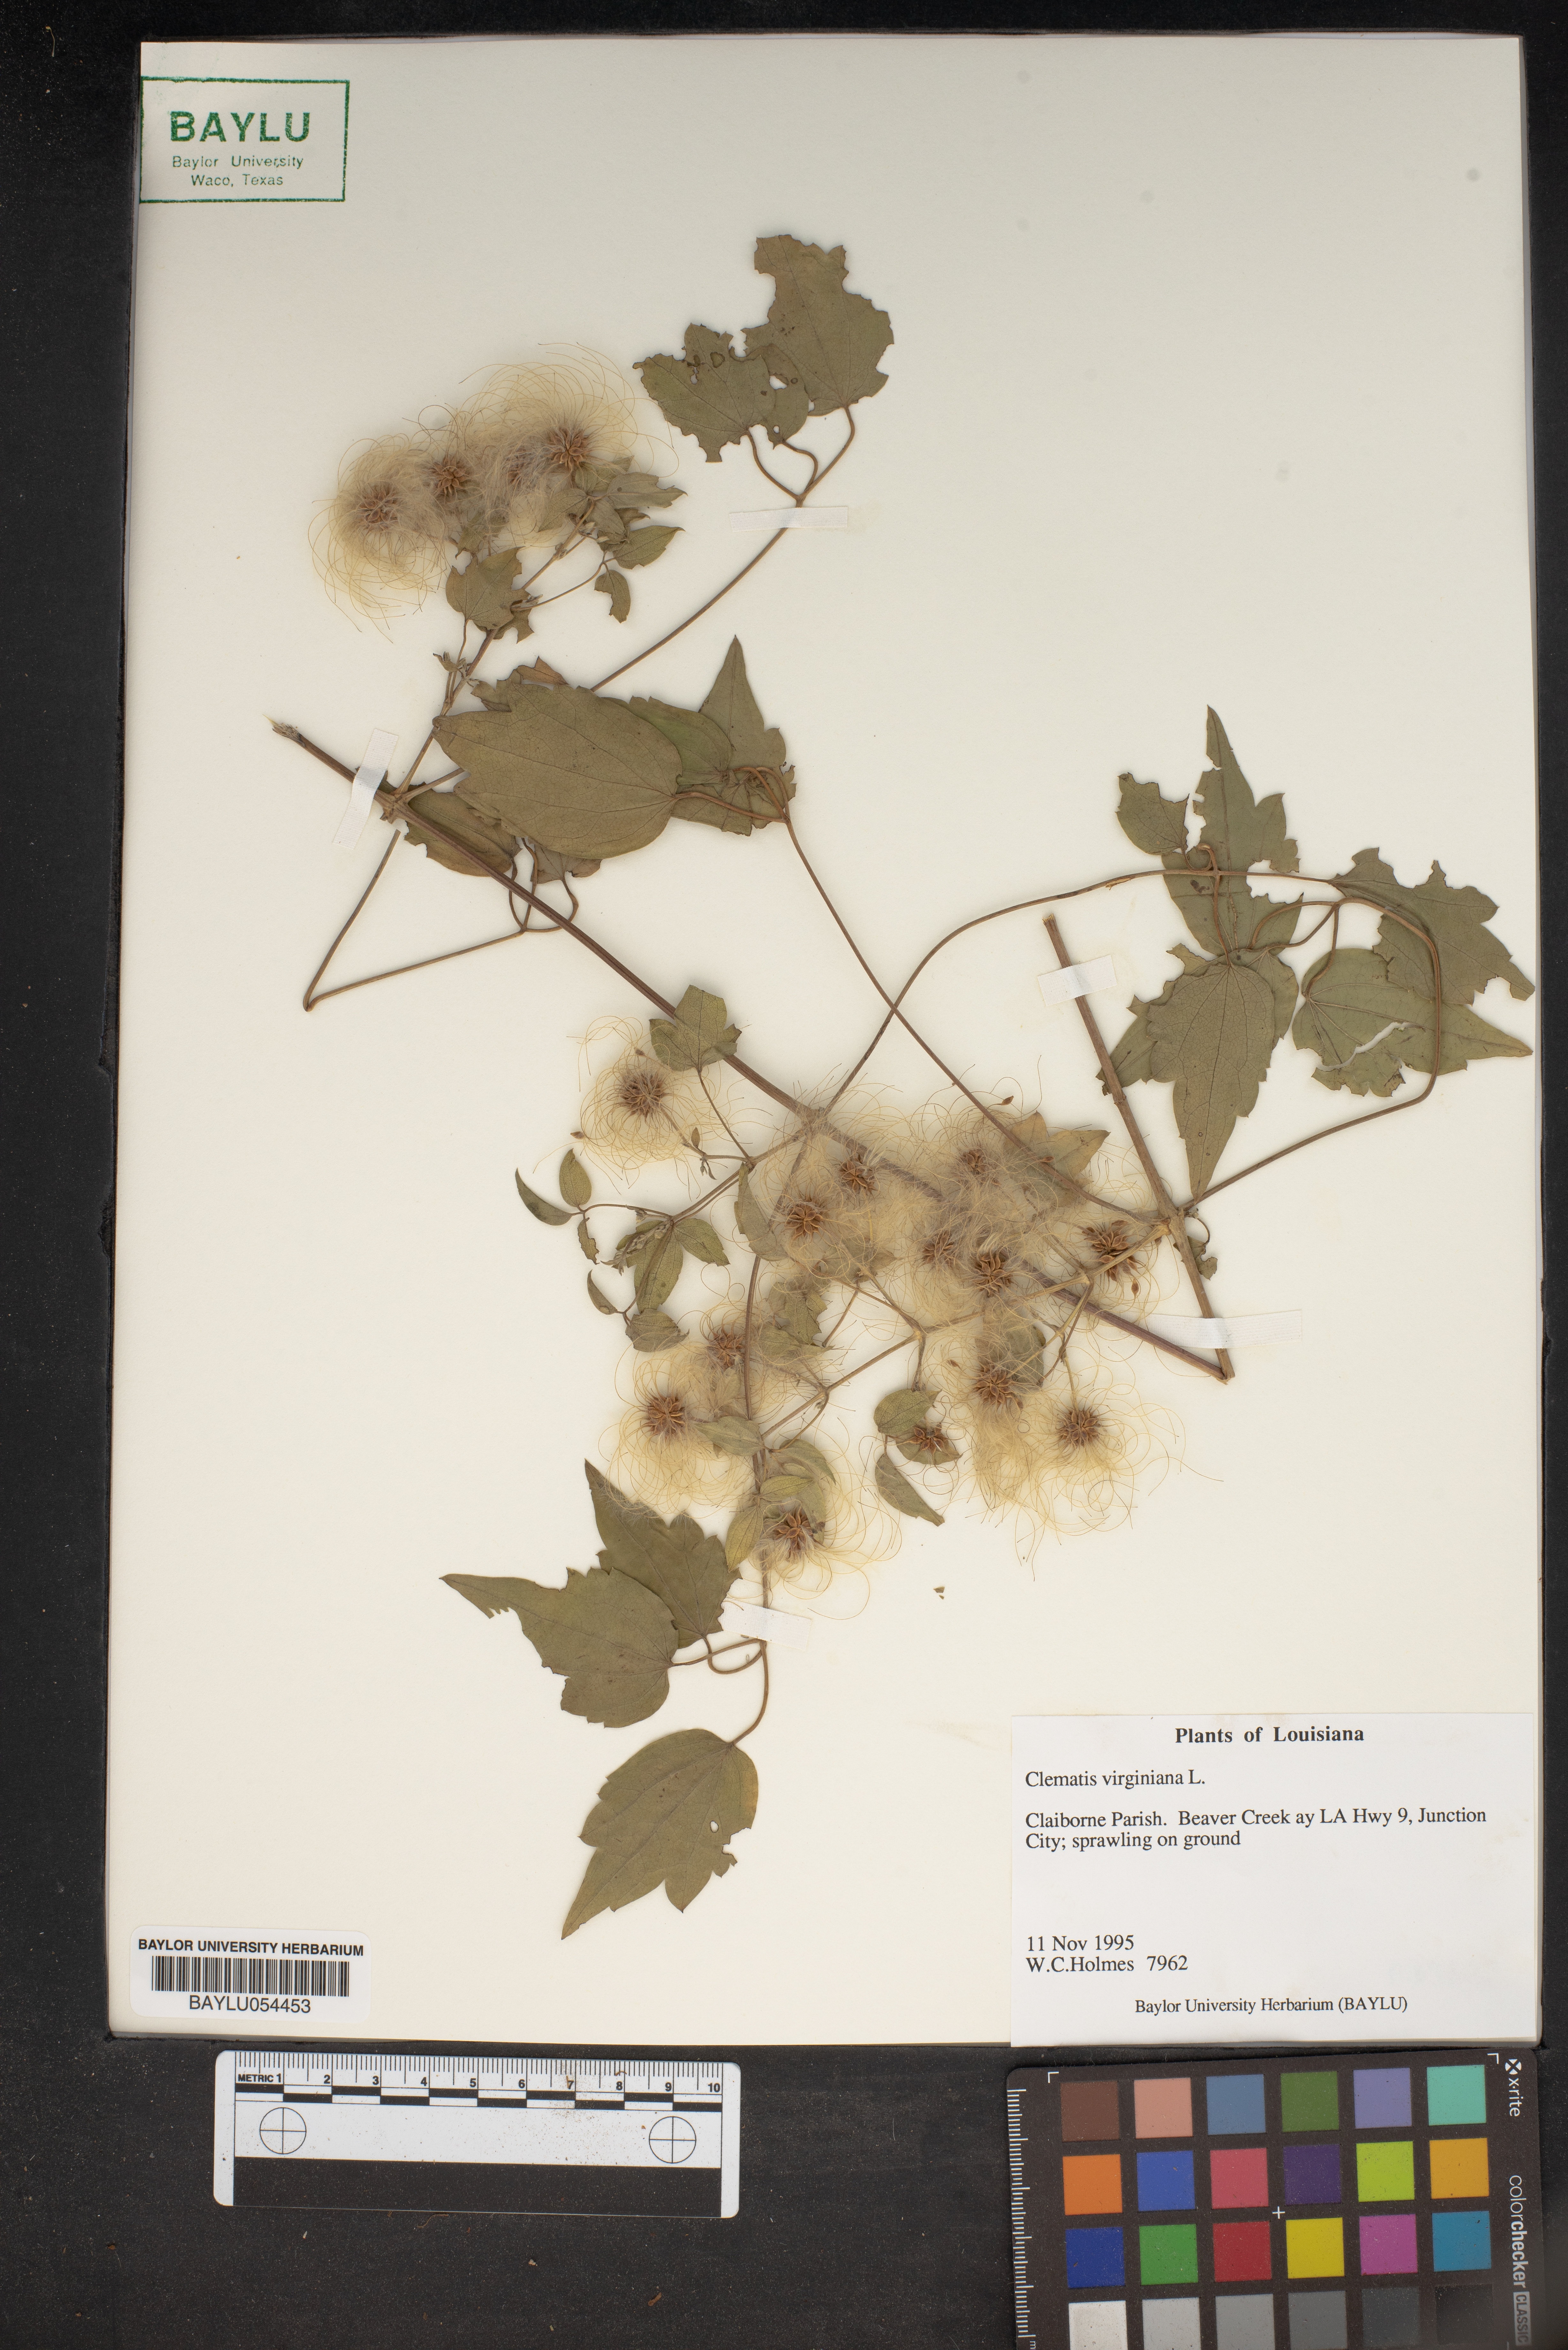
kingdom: Plantae
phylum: Tracheophyta
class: Magnoliopsida
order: Ranunculales
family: Ranunculaceae
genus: Clematis
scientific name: Clematis virginiana
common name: Virgin's-bower
